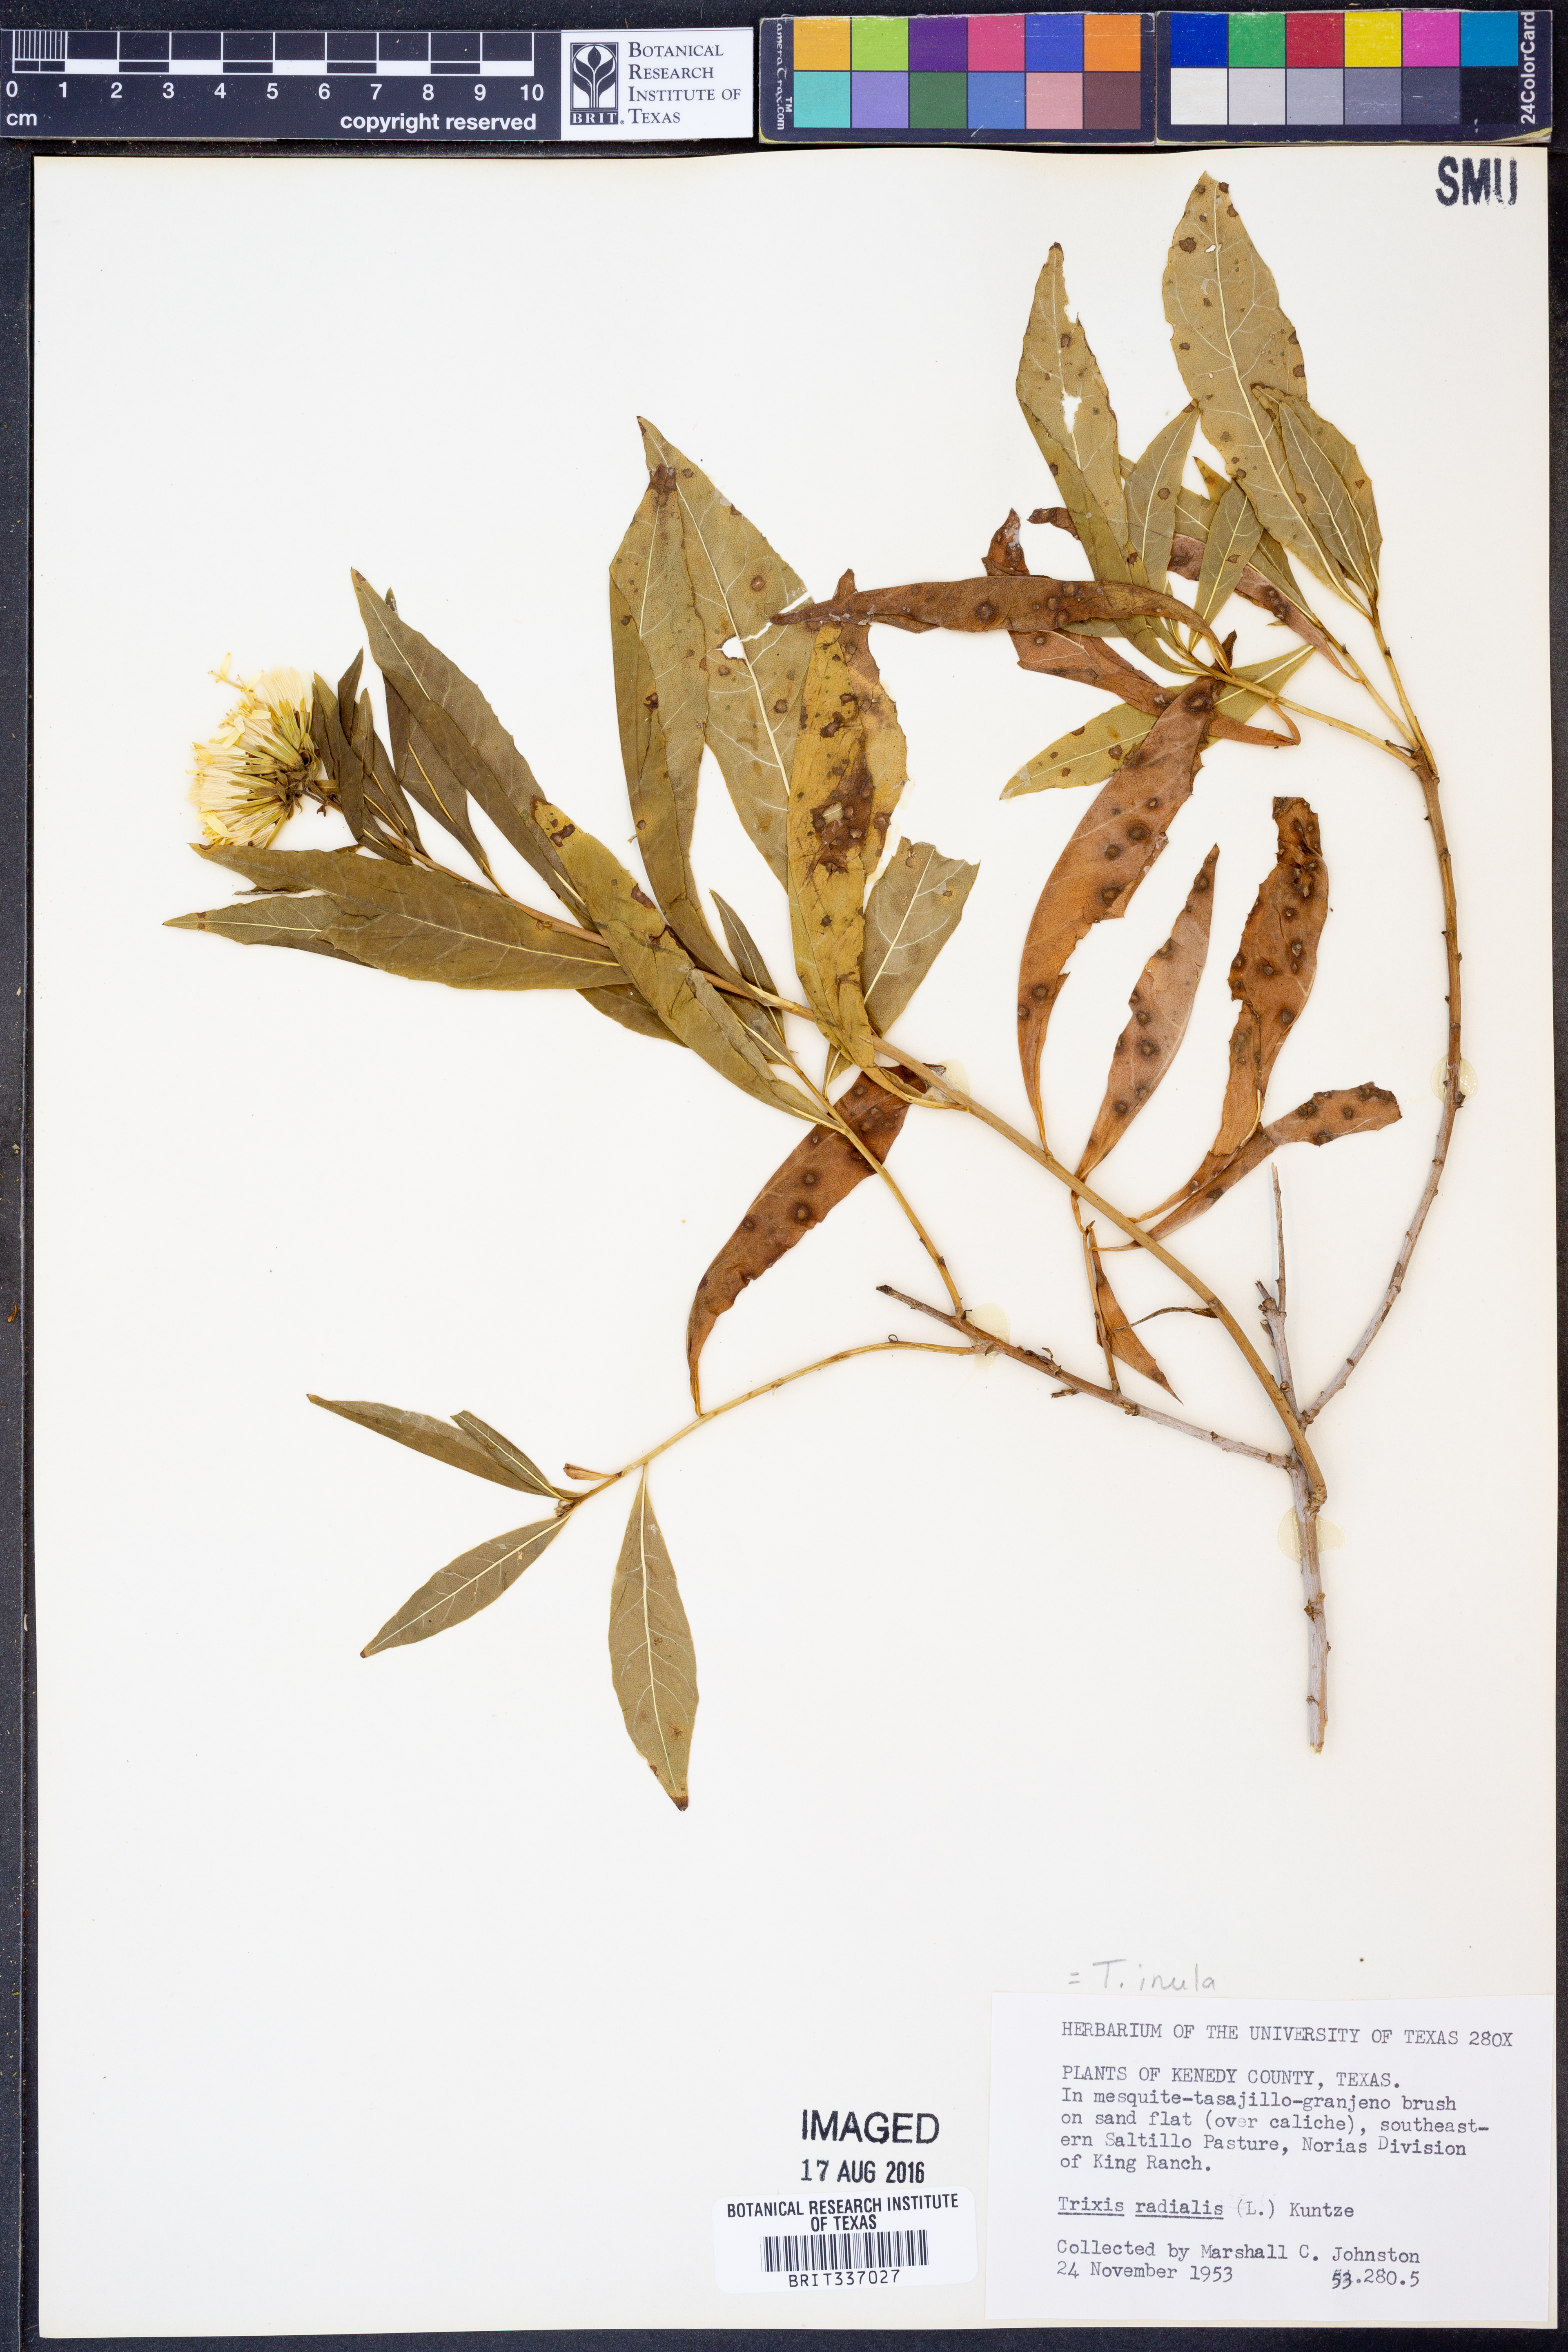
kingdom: Plantae
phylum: Tracheophyta
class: Magnoliopsida
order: Asterales
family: Asteraceae
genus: Trixis
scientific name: Trixis inula
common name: Tropical threefold
